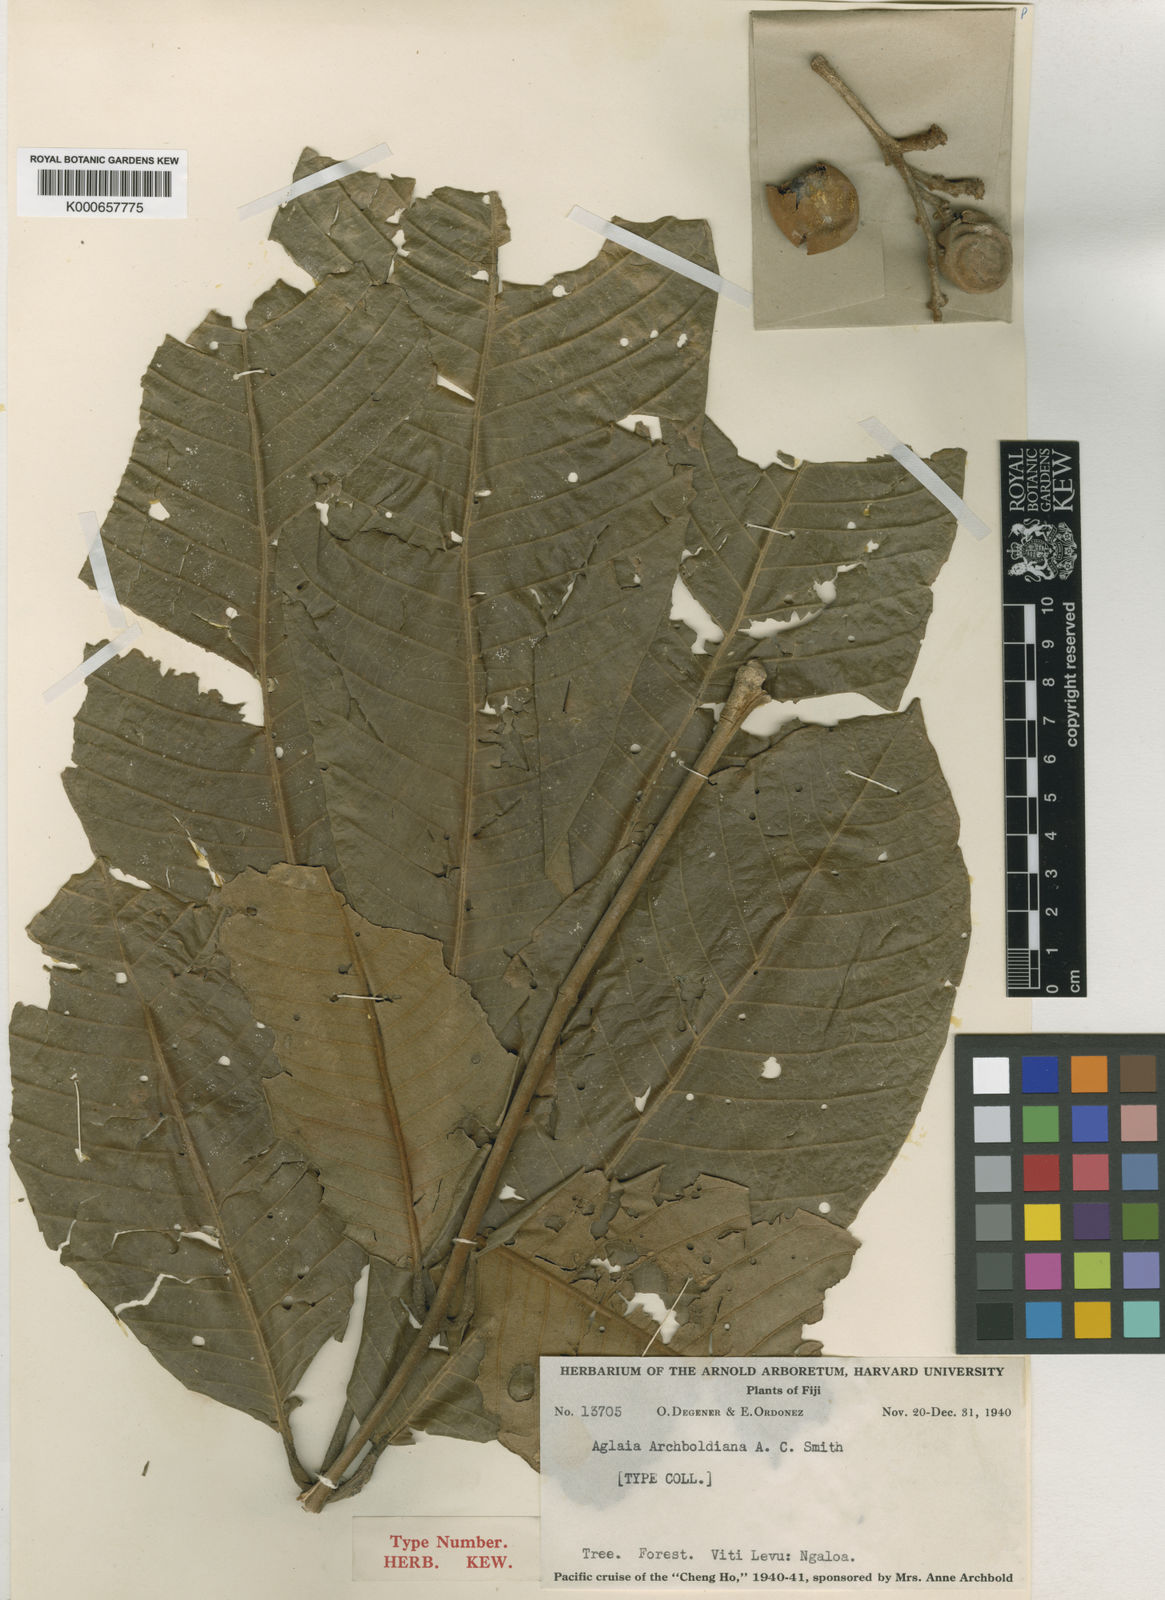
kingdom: Plantae
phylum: Tracheophyta
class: Magnoliopsida
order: Sapindales
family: Meliaceae
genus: Aglaia
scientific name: Aglaia archboldiana
